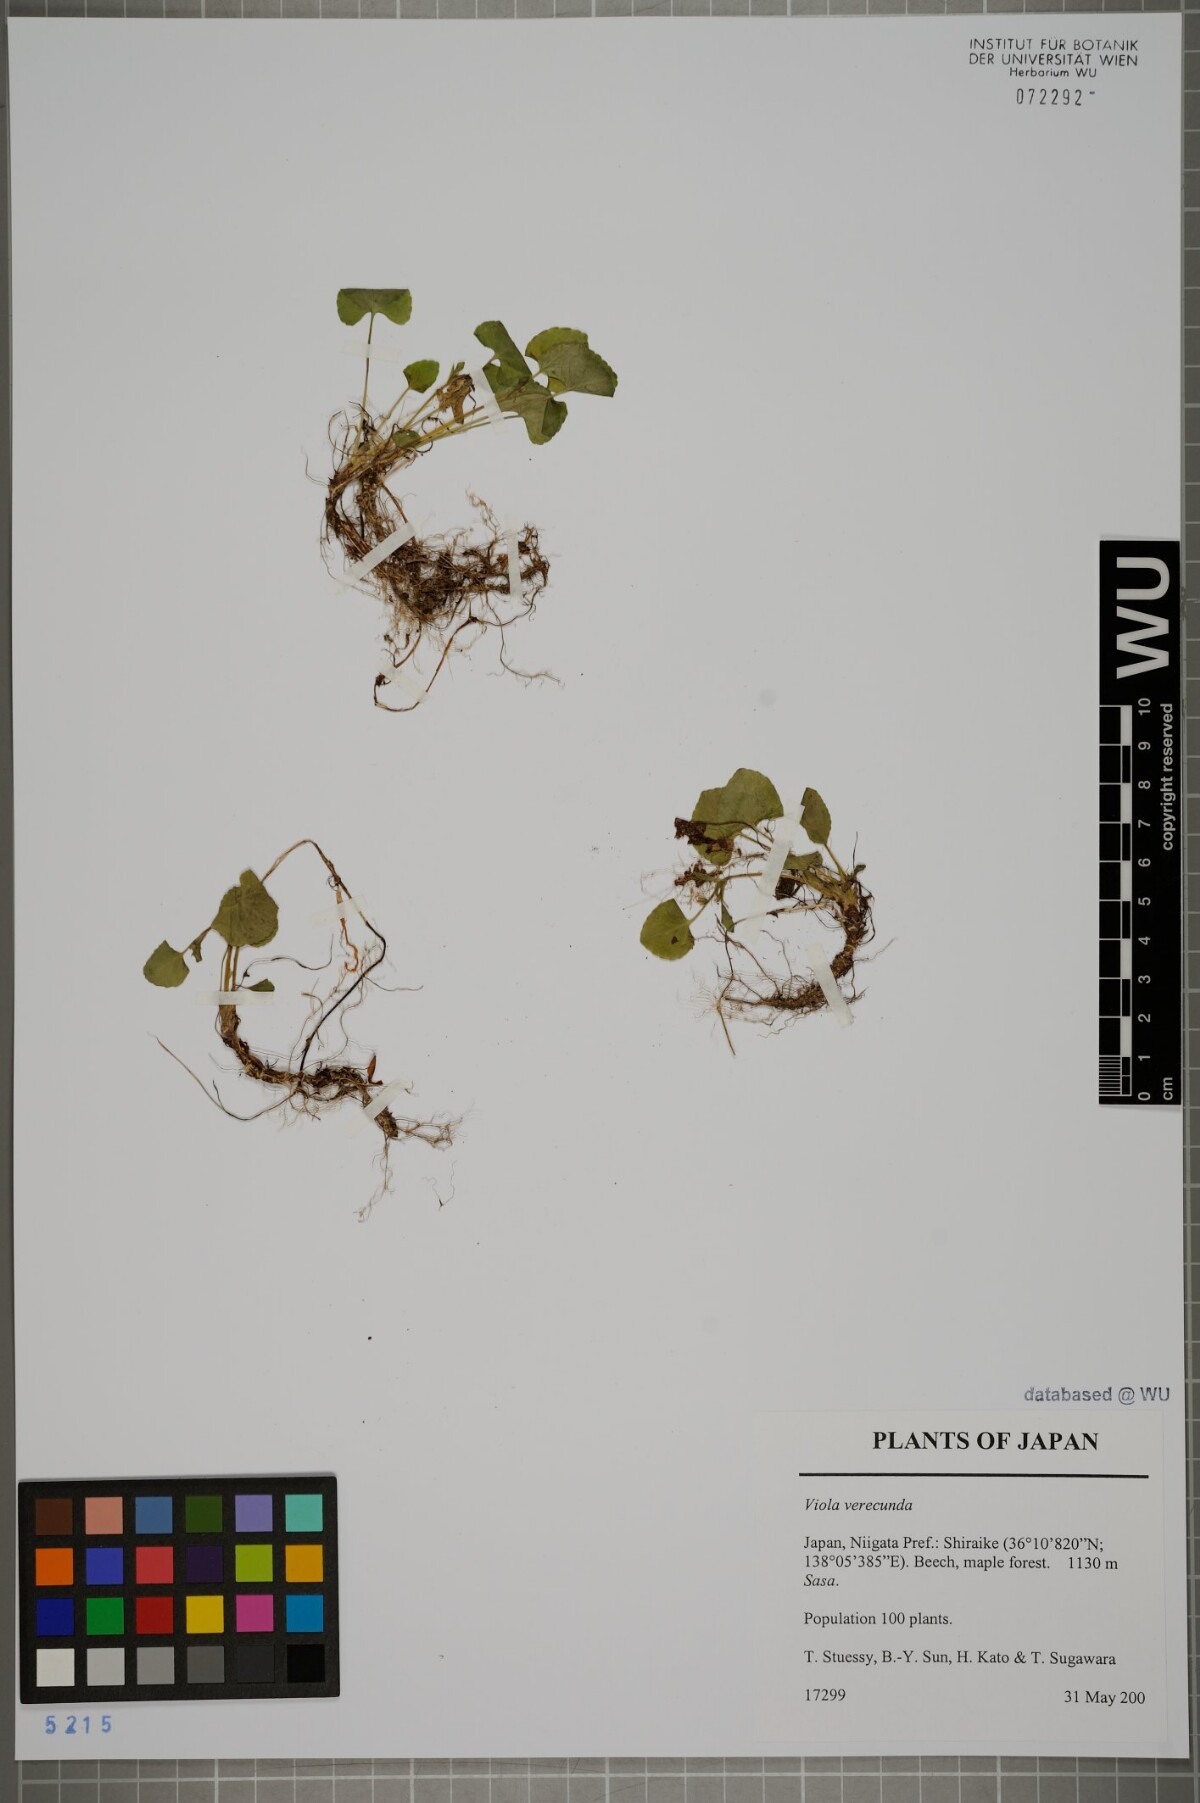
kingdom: Plantae
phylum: Tracheophyta
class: Magnoliopsida
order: Malpighiales
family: Violaceae
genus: Viola
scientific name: Viola hamiltoniana
